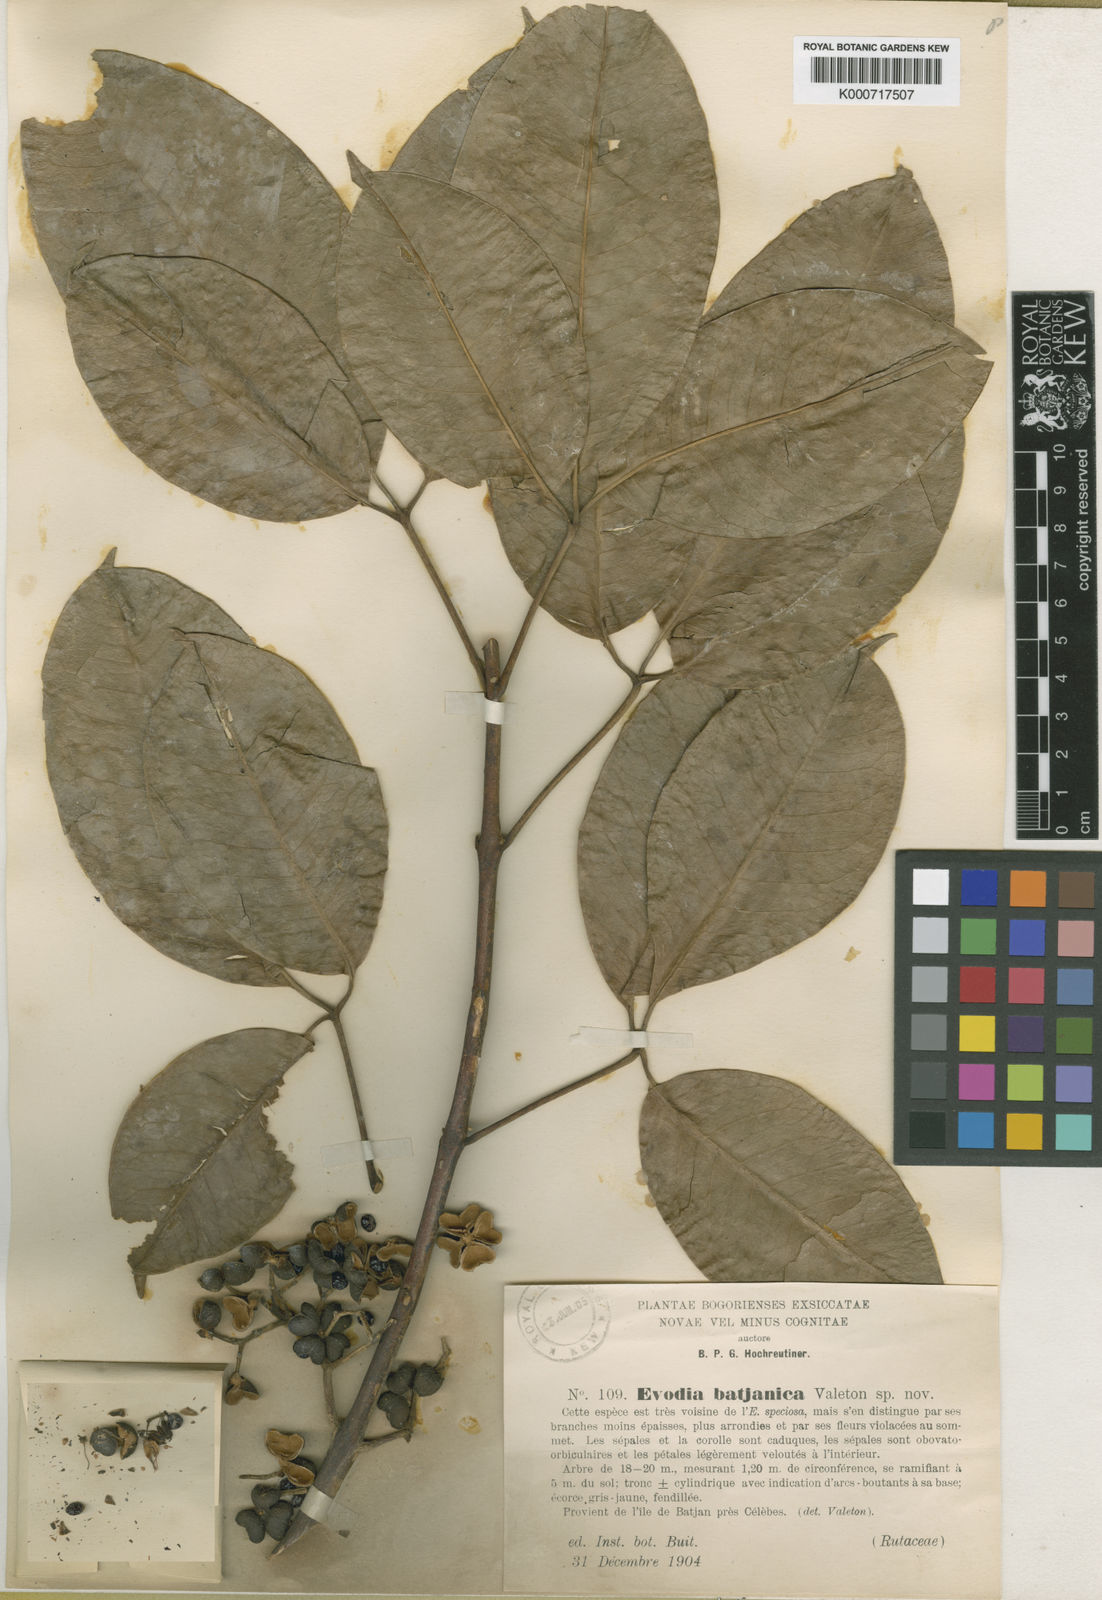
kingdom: Plantae
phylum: Tracheophyta
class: Magnoliopsida
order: Sapindales
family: Rutaceae
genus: Melicope
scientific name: Melicope elleryana
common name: Pink euodia
